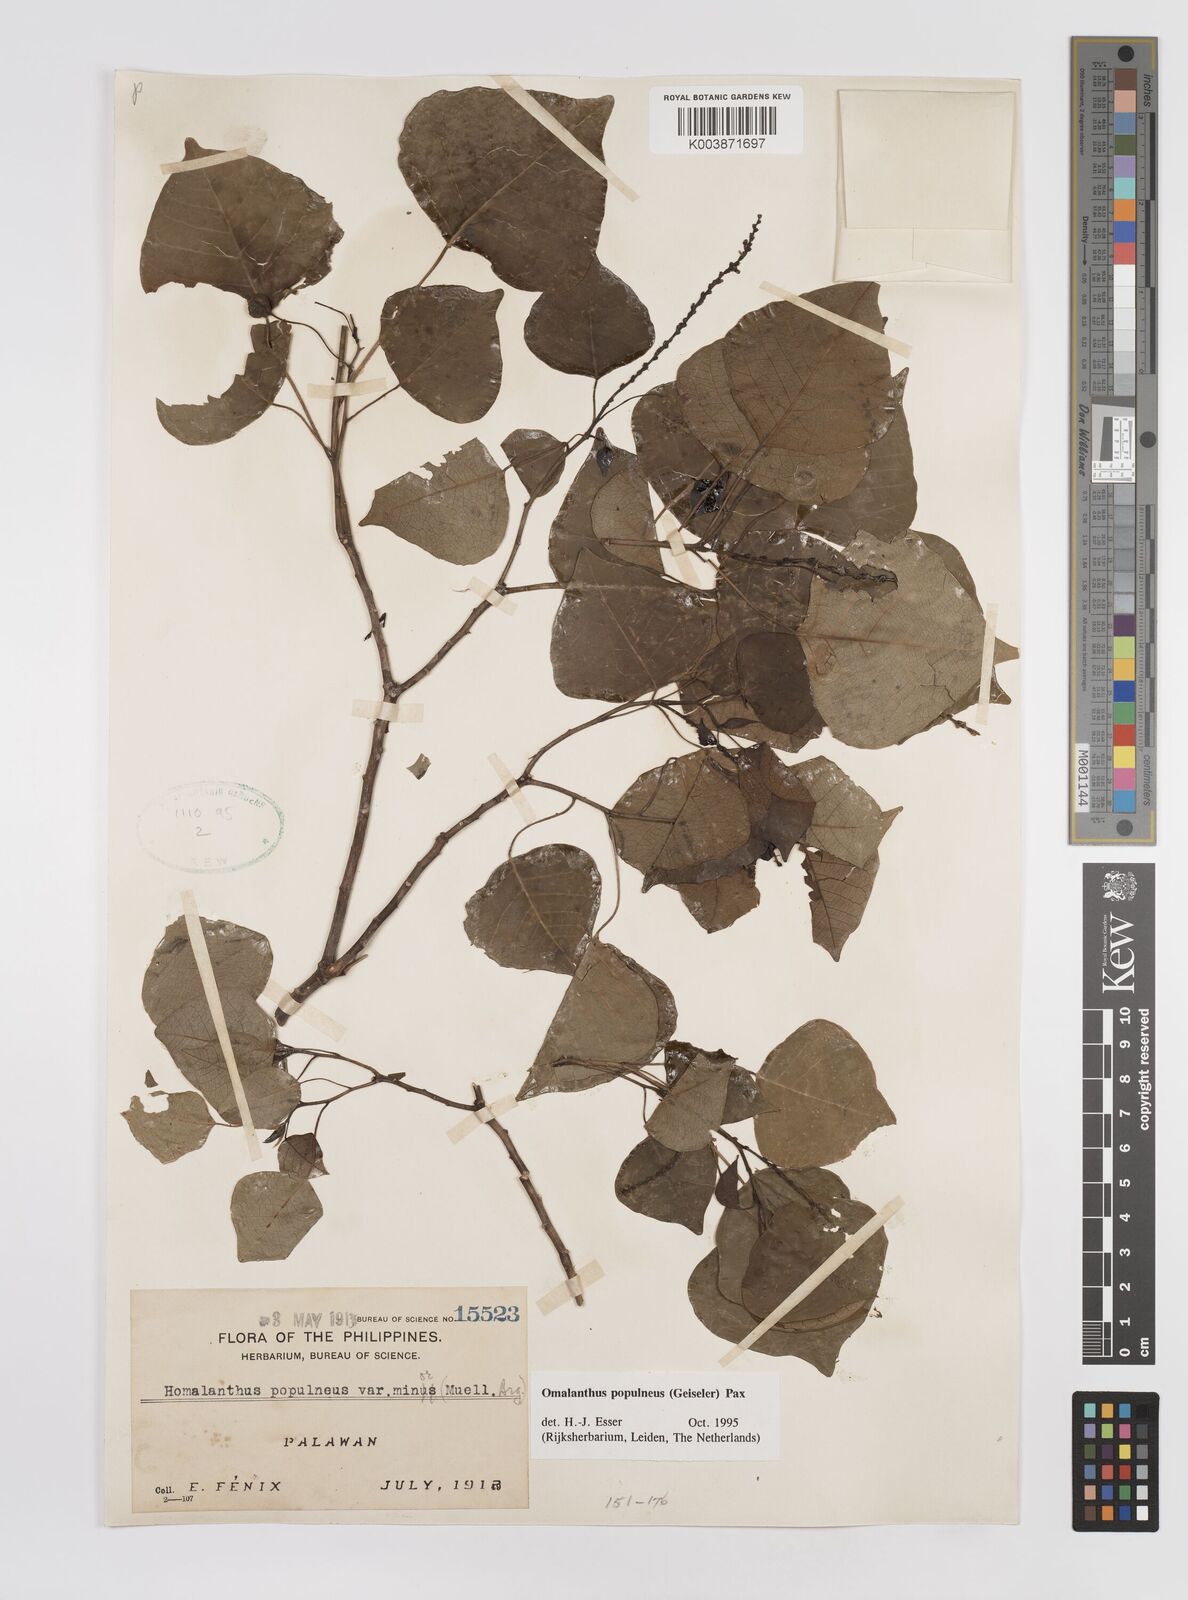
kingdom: Plantae
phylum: Tracheophyta
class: Magnoliopsida
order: Malpighiales
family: Euphorbiaceae
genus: Homalanthus
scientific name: Homalanthus populneus
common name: Spurge
